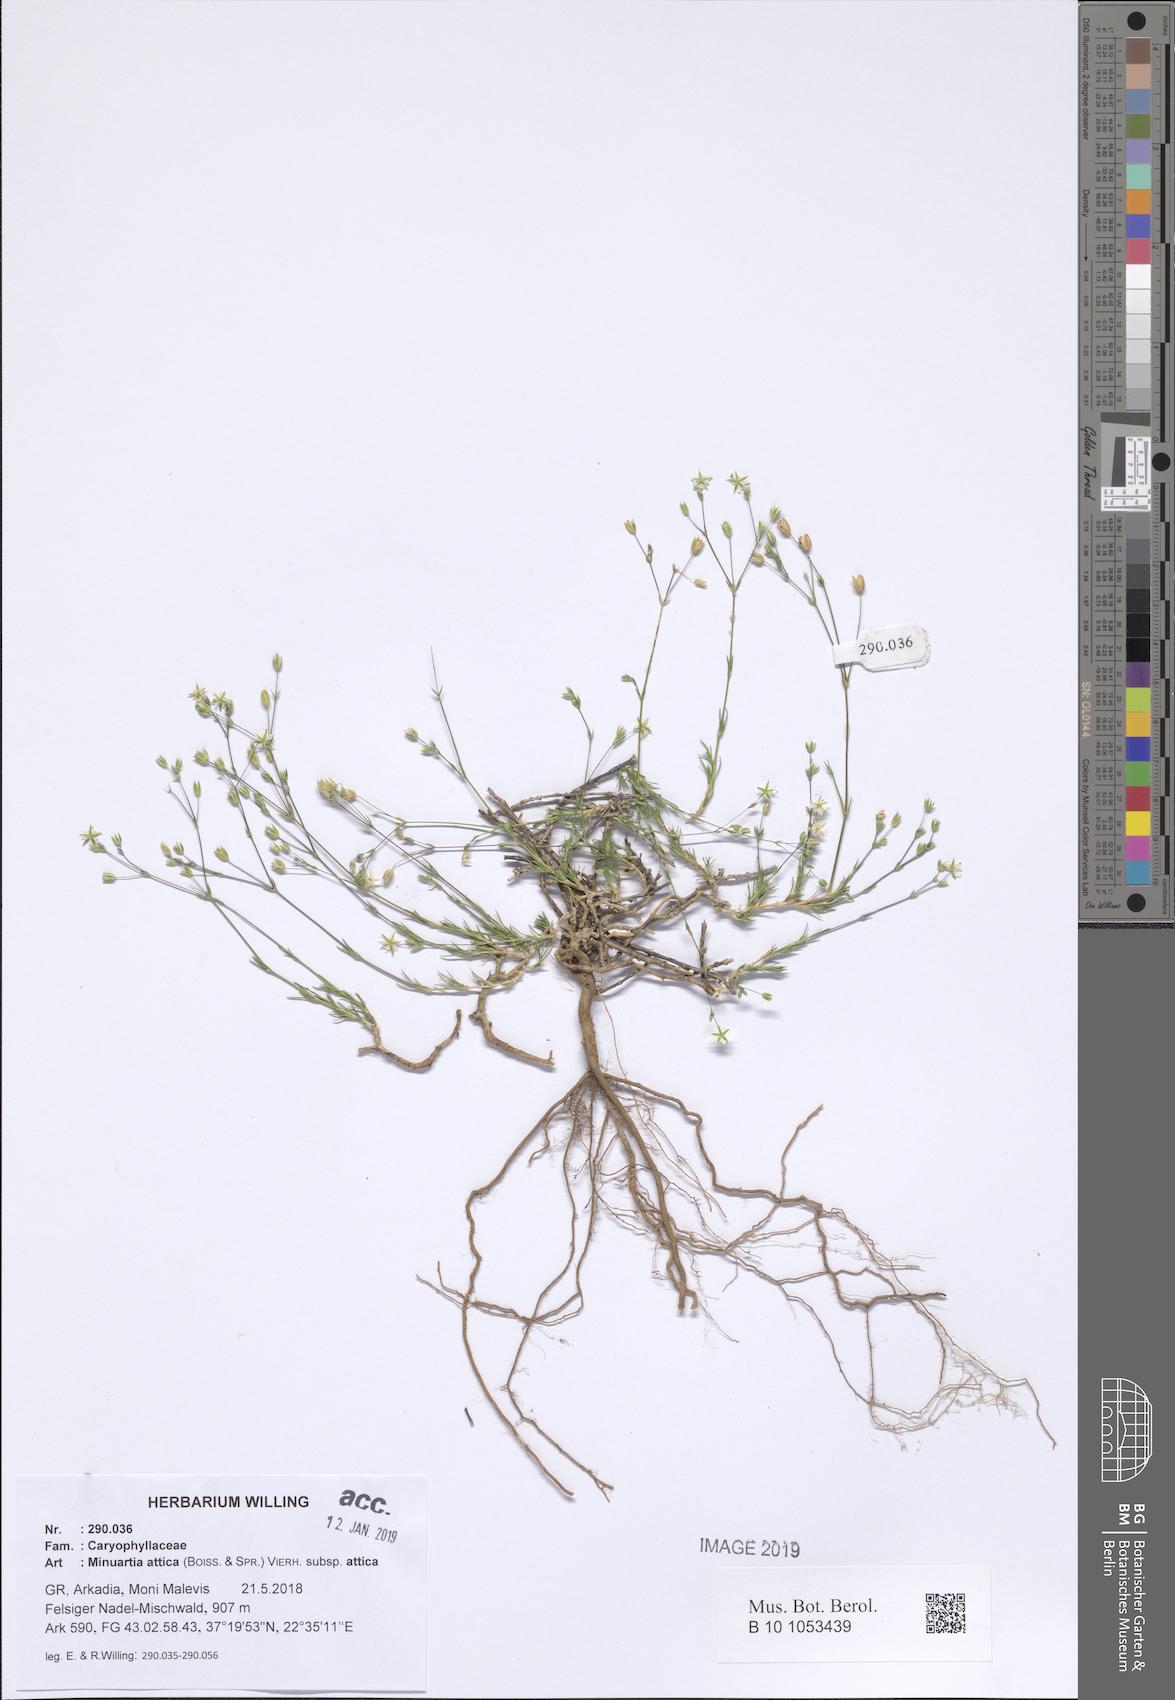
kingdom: Plantae
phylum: Tracheophyta
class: Magnoliopsida
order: Caryophyllales
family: Caryophyllaceae
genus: Sabulina
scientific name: Sabulina attica
